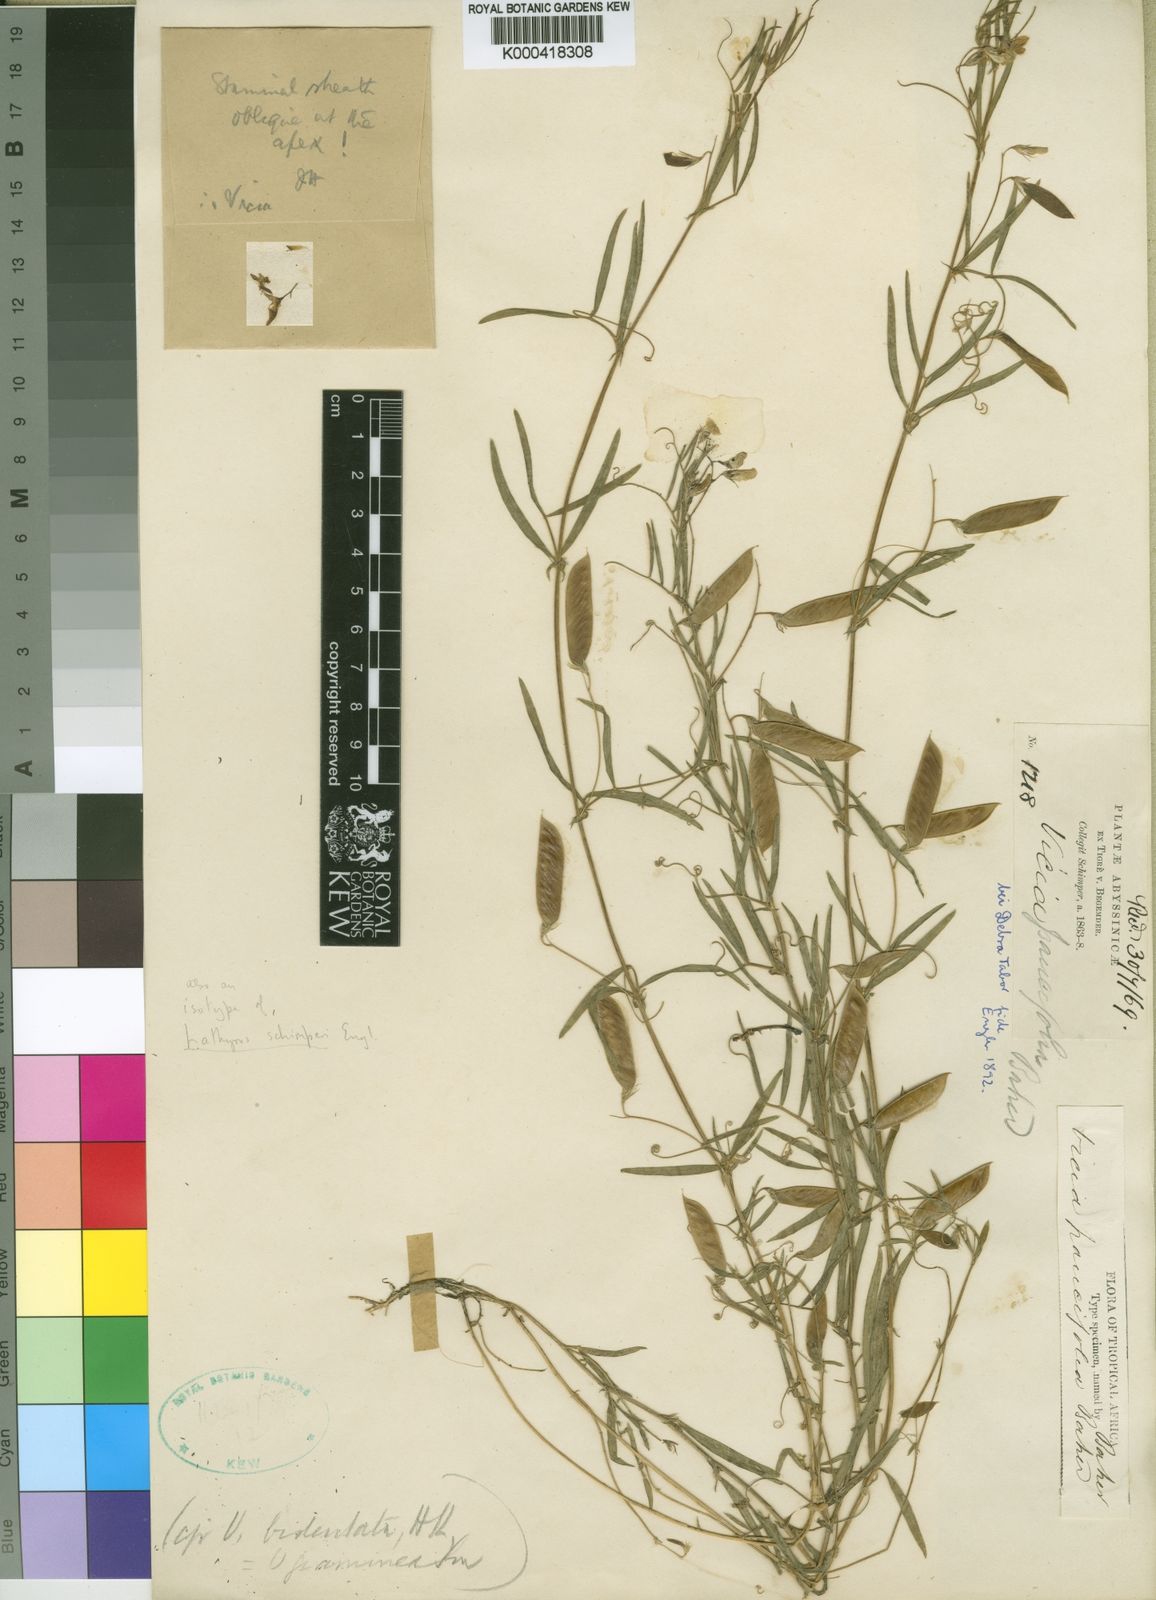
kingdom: Plantae
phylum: Tracheophyta
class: Magnoliopsida
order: Fabales
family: Fabaceae
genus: Vicia
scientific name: Vicia paucifolia
